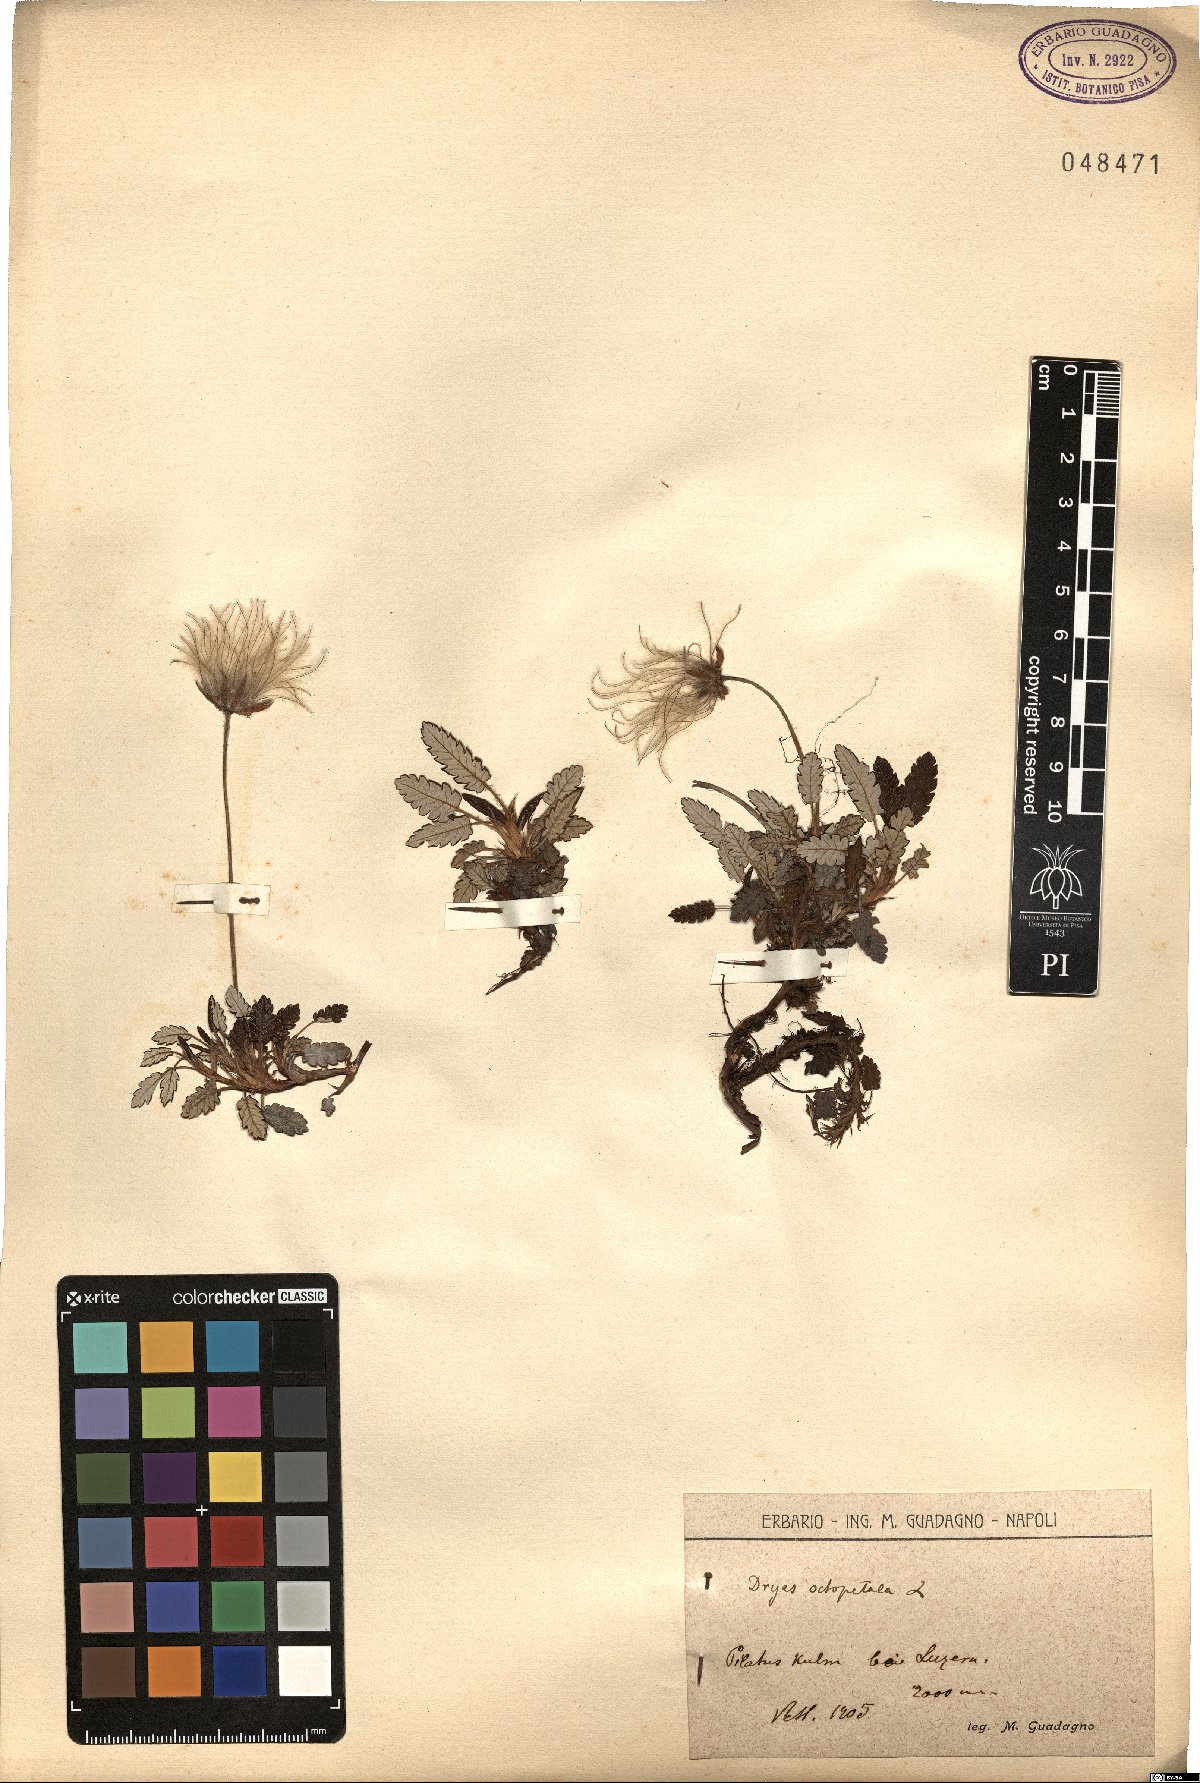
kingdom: Plantae
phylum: Tracheophyta
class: Magnoliopsida
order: Rosales
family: Rosaceae
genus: Dryas
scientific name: Dryas octopetala
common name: Eight-petal mountain-avens
